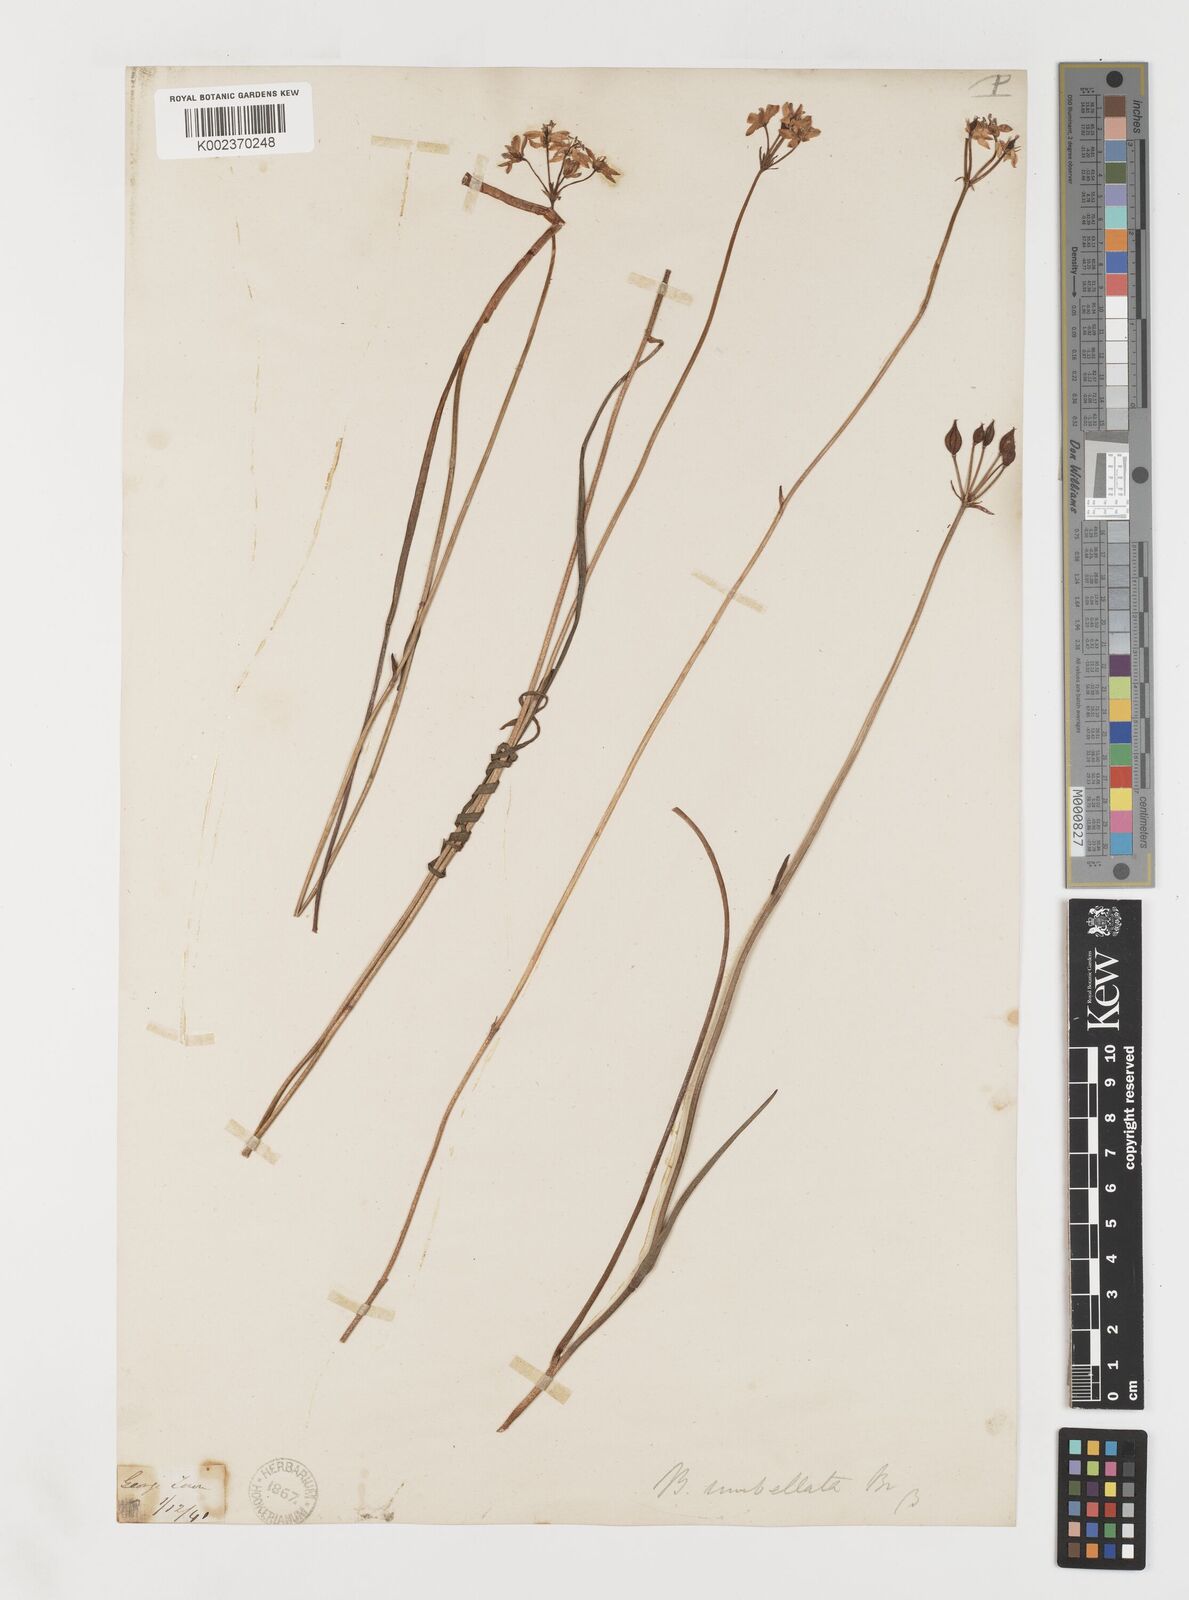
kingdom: Plantae
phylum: Tracheophyta
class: Liliopsida
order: Liliales
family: Colchicaceae
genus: Burchardia
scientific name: Burchardia
